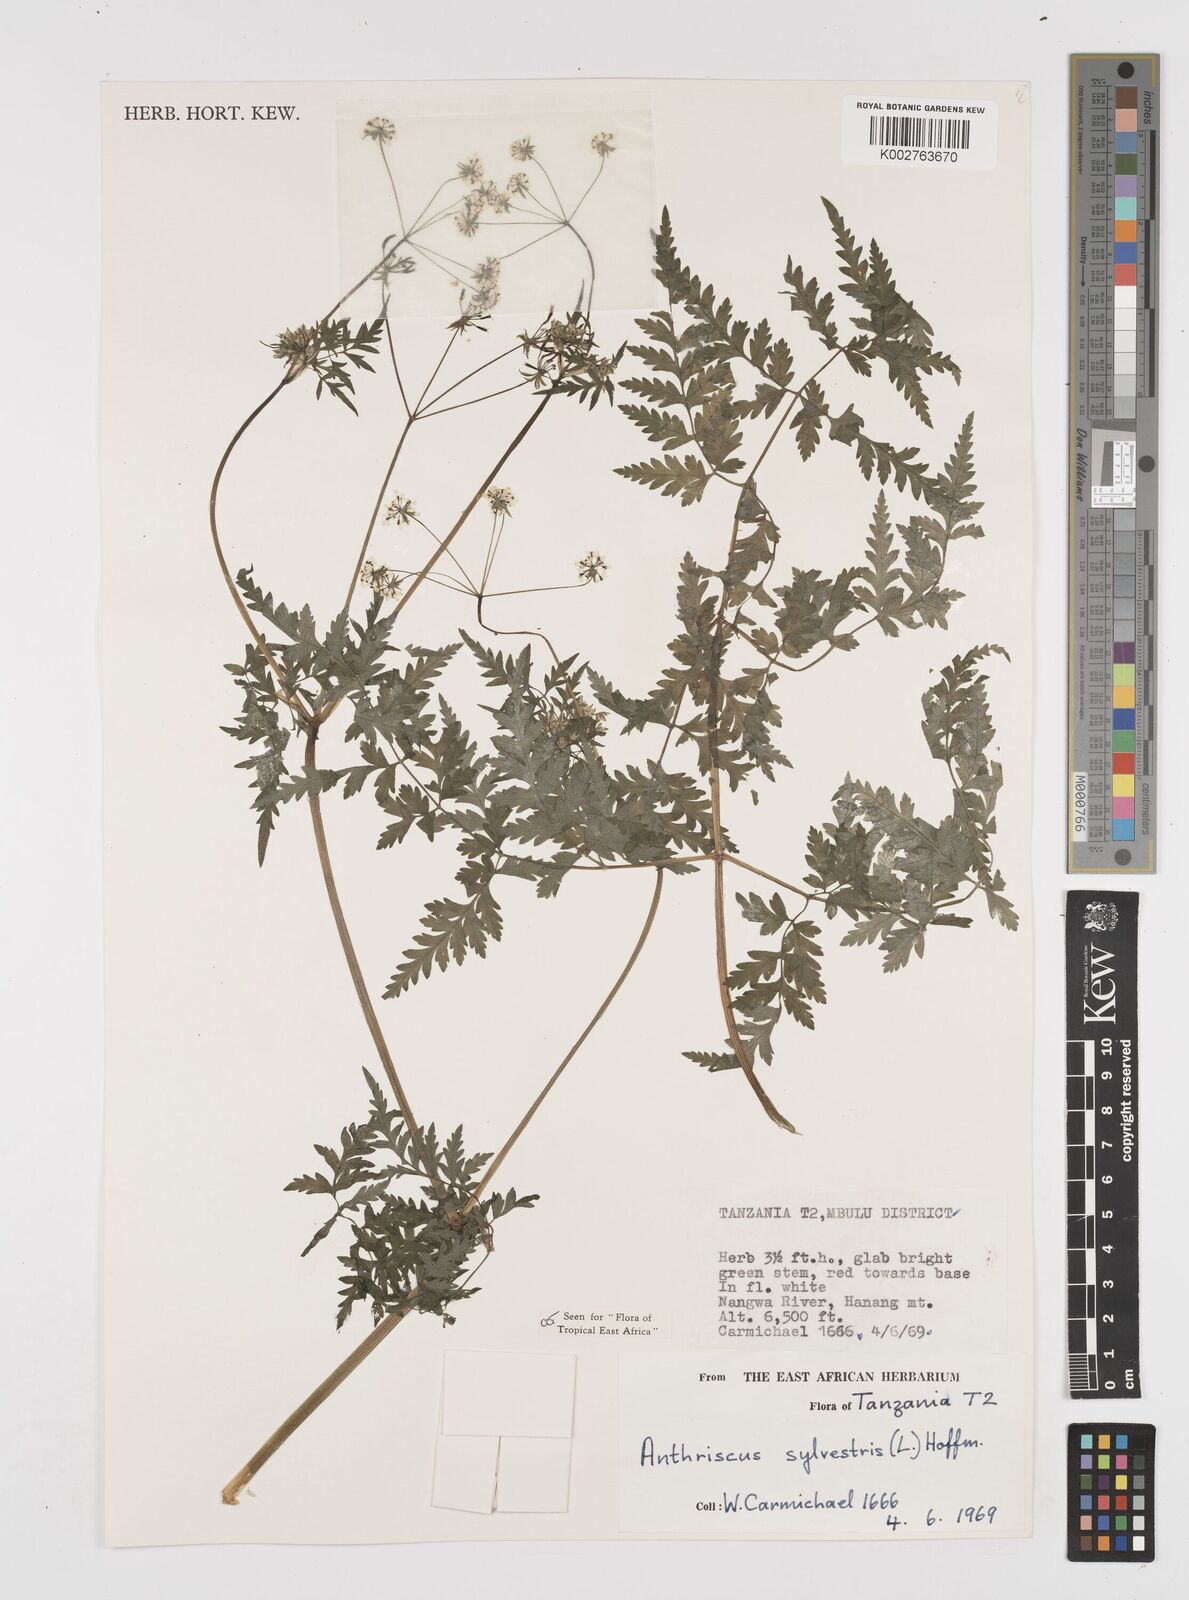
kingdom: Plantae
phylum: Tracheophyta
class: Magnoliopsida
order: Apiales
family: Apiaceae
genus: Anthriscus
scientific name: Anthriscus sylvestris
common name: Cow parsley
